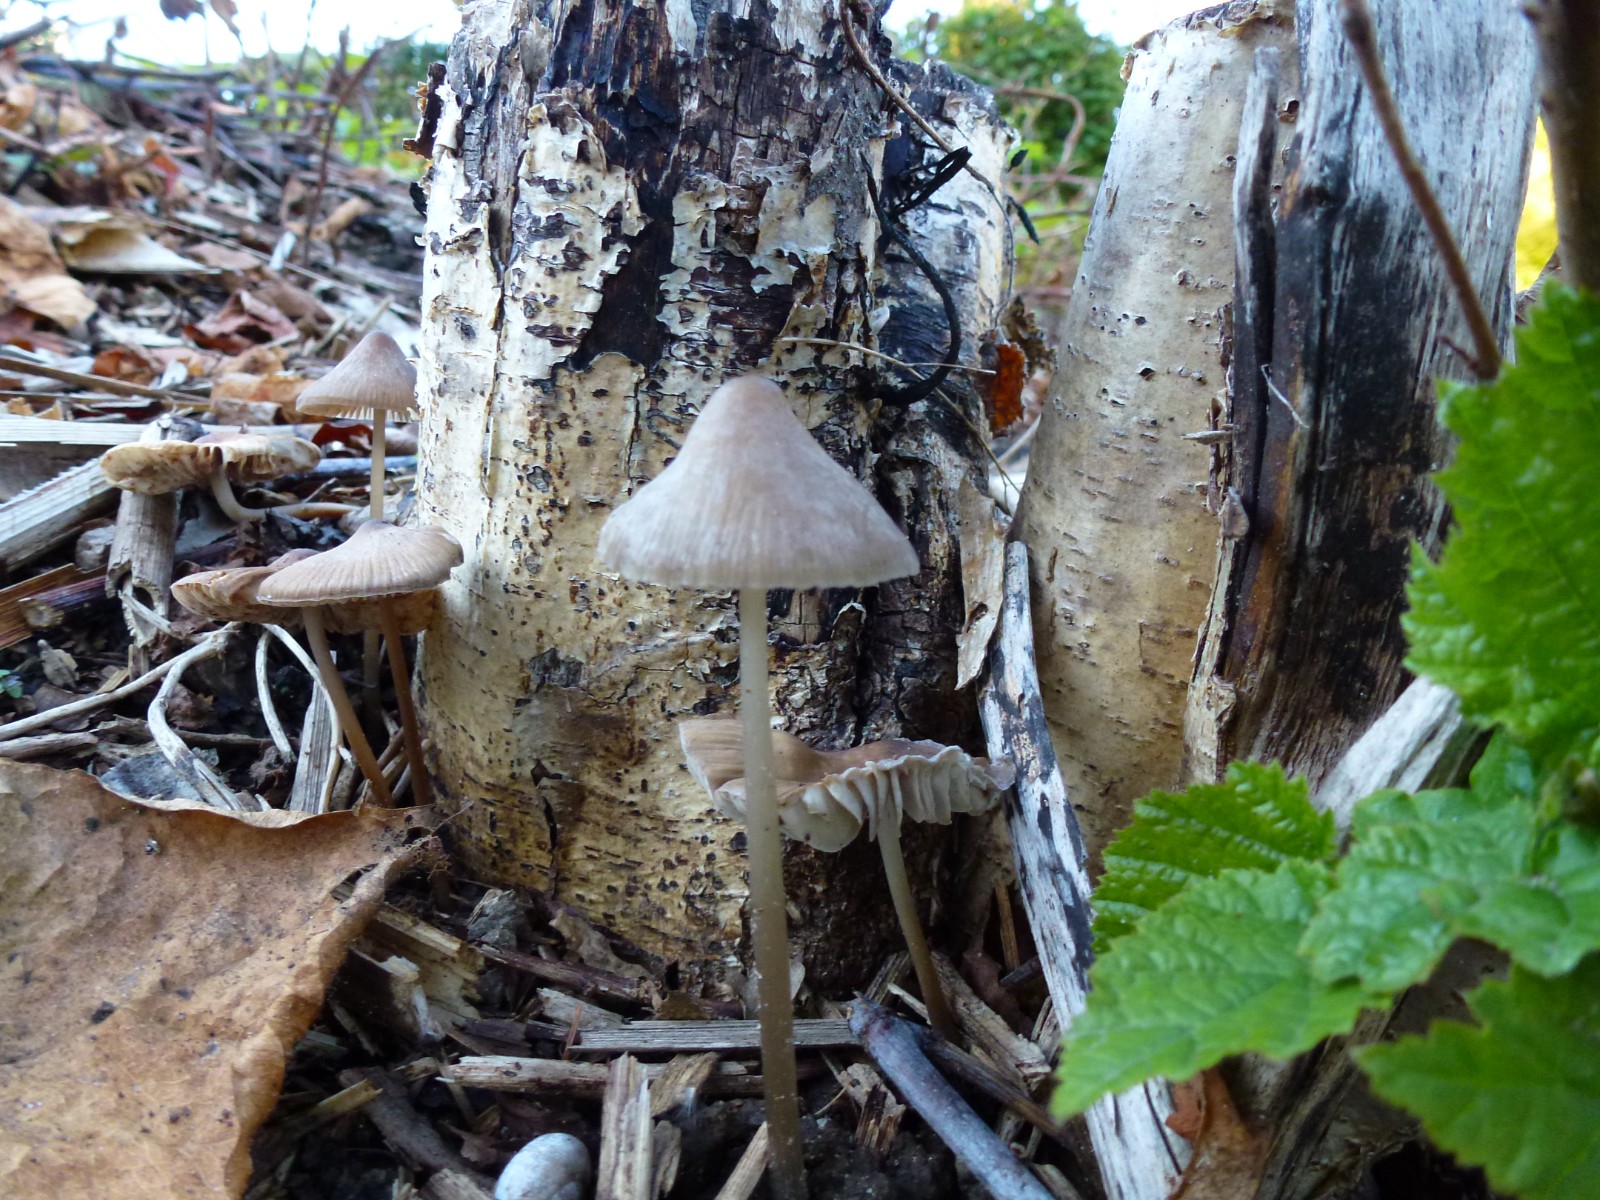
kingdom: Fungi
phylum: Basidiomycota
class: Agaricomycetes
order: Agaricales
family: Mycenaceae
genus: Mycena
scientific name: Mycena polygramma
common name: mangestribet huesvamp
